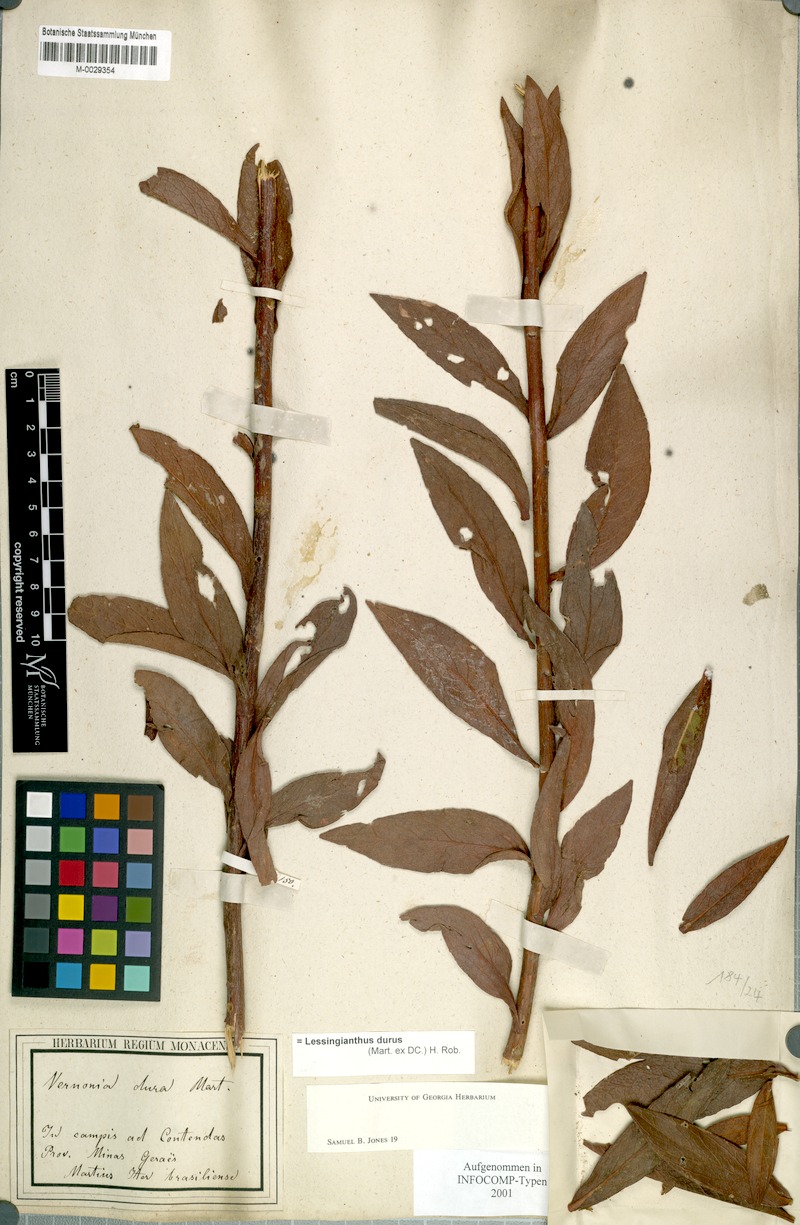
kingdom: Plantae
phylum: Tracheophyta
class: Magnoliopsida
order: Asterales
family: Asteraceae
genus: Lessingianthus
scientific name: Lessingianthus durus
